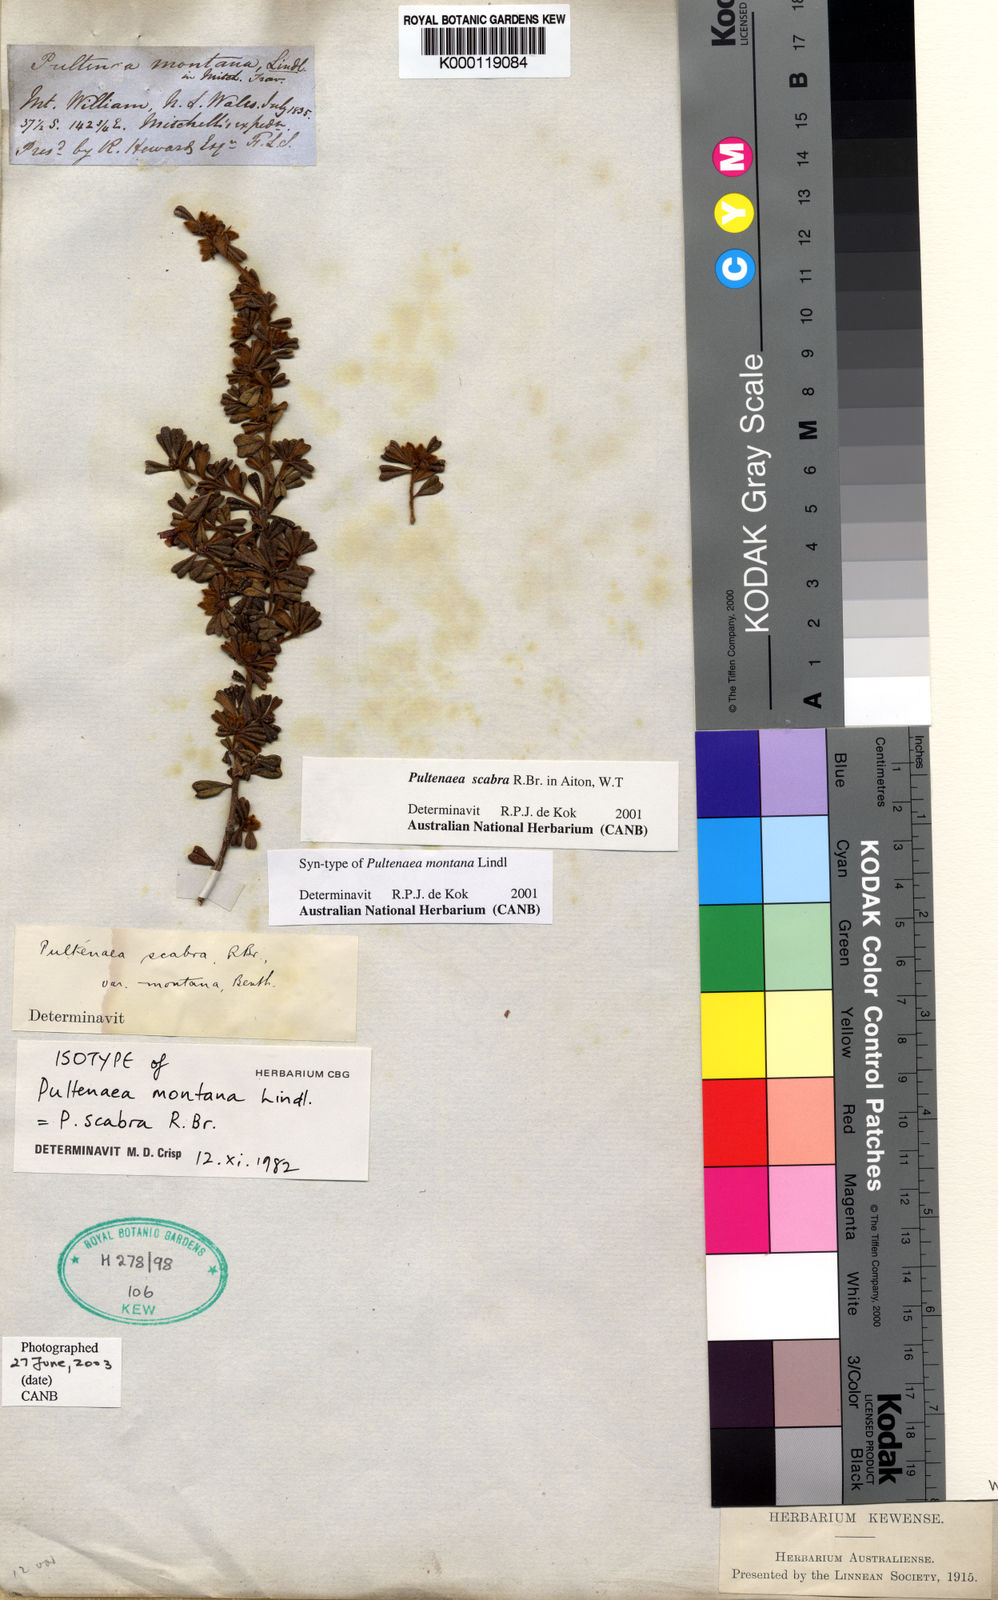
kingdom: Plantae
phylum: Tracheophyta
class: Magnoliopsida
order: Fabales
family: Fabaceae
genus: Pultenaea
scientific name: Pultenaea scabra
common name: Rough bush-pea
